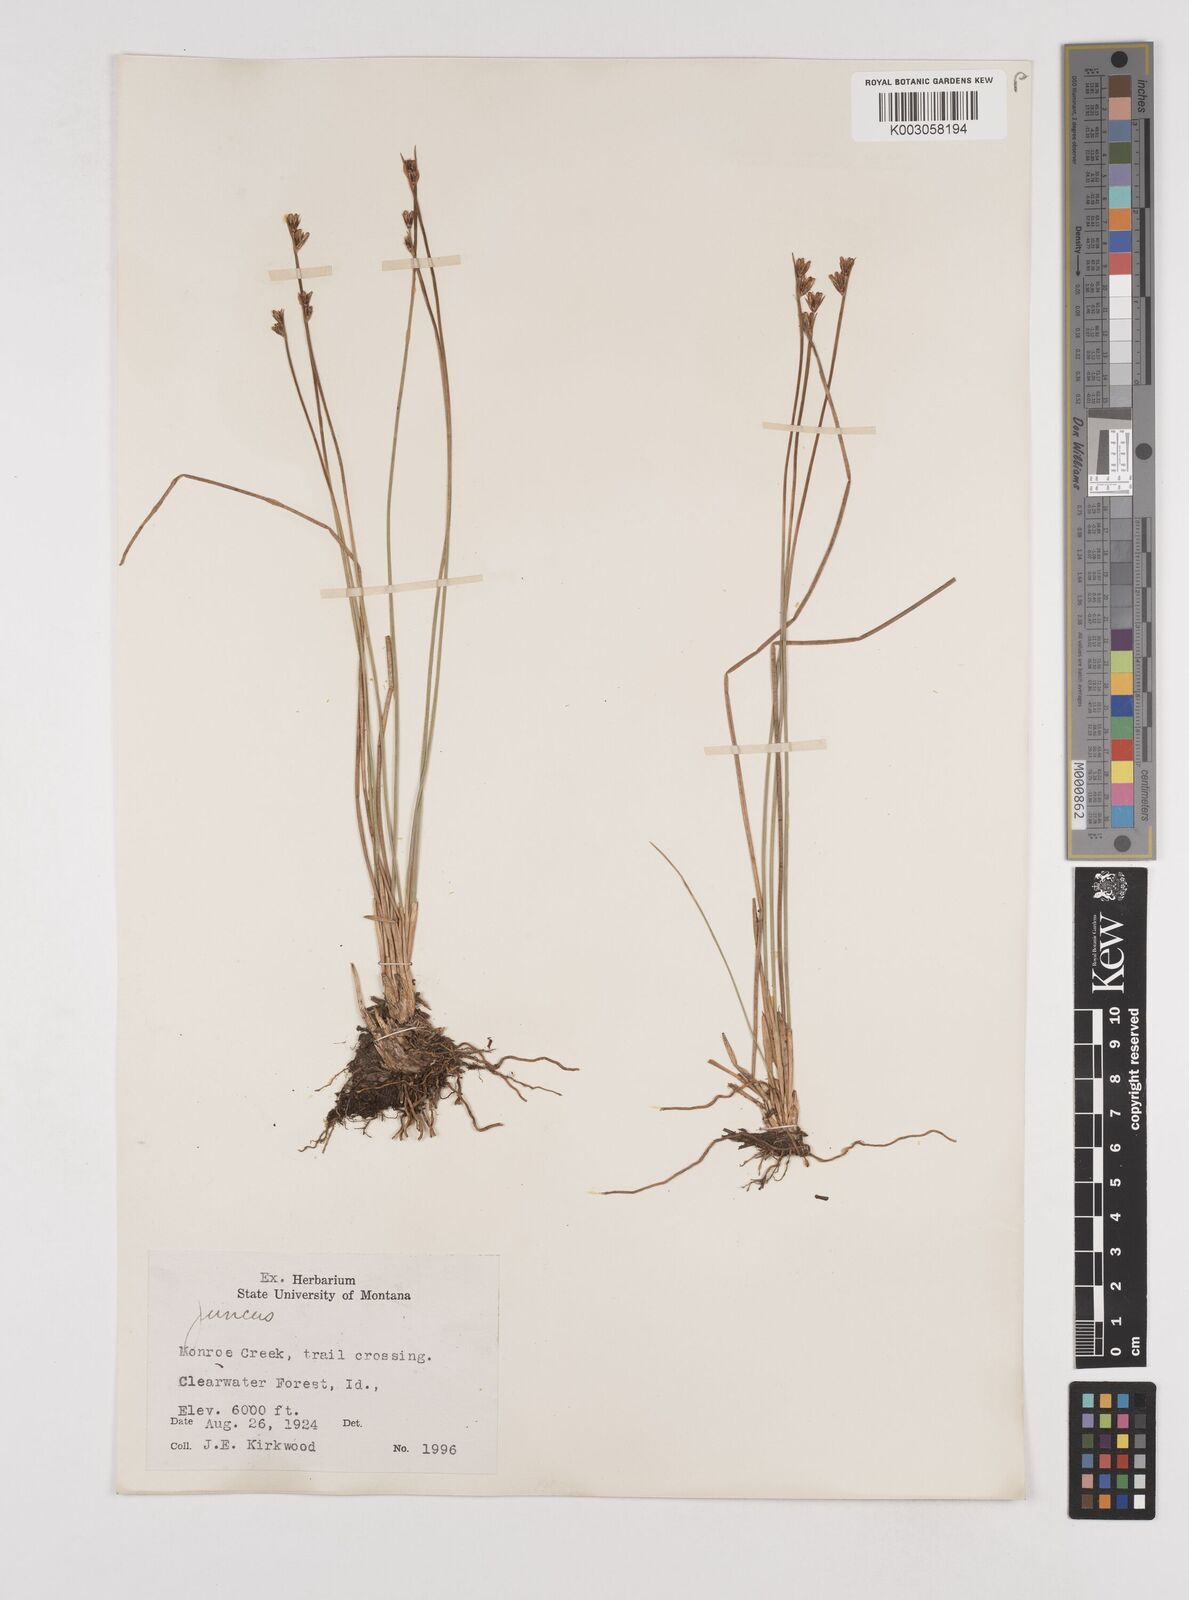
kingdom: Plantae
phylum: Tracheophyta
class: Liliopsida
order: Poales
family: Juncaceae
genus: Juncus
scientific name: Juncus
